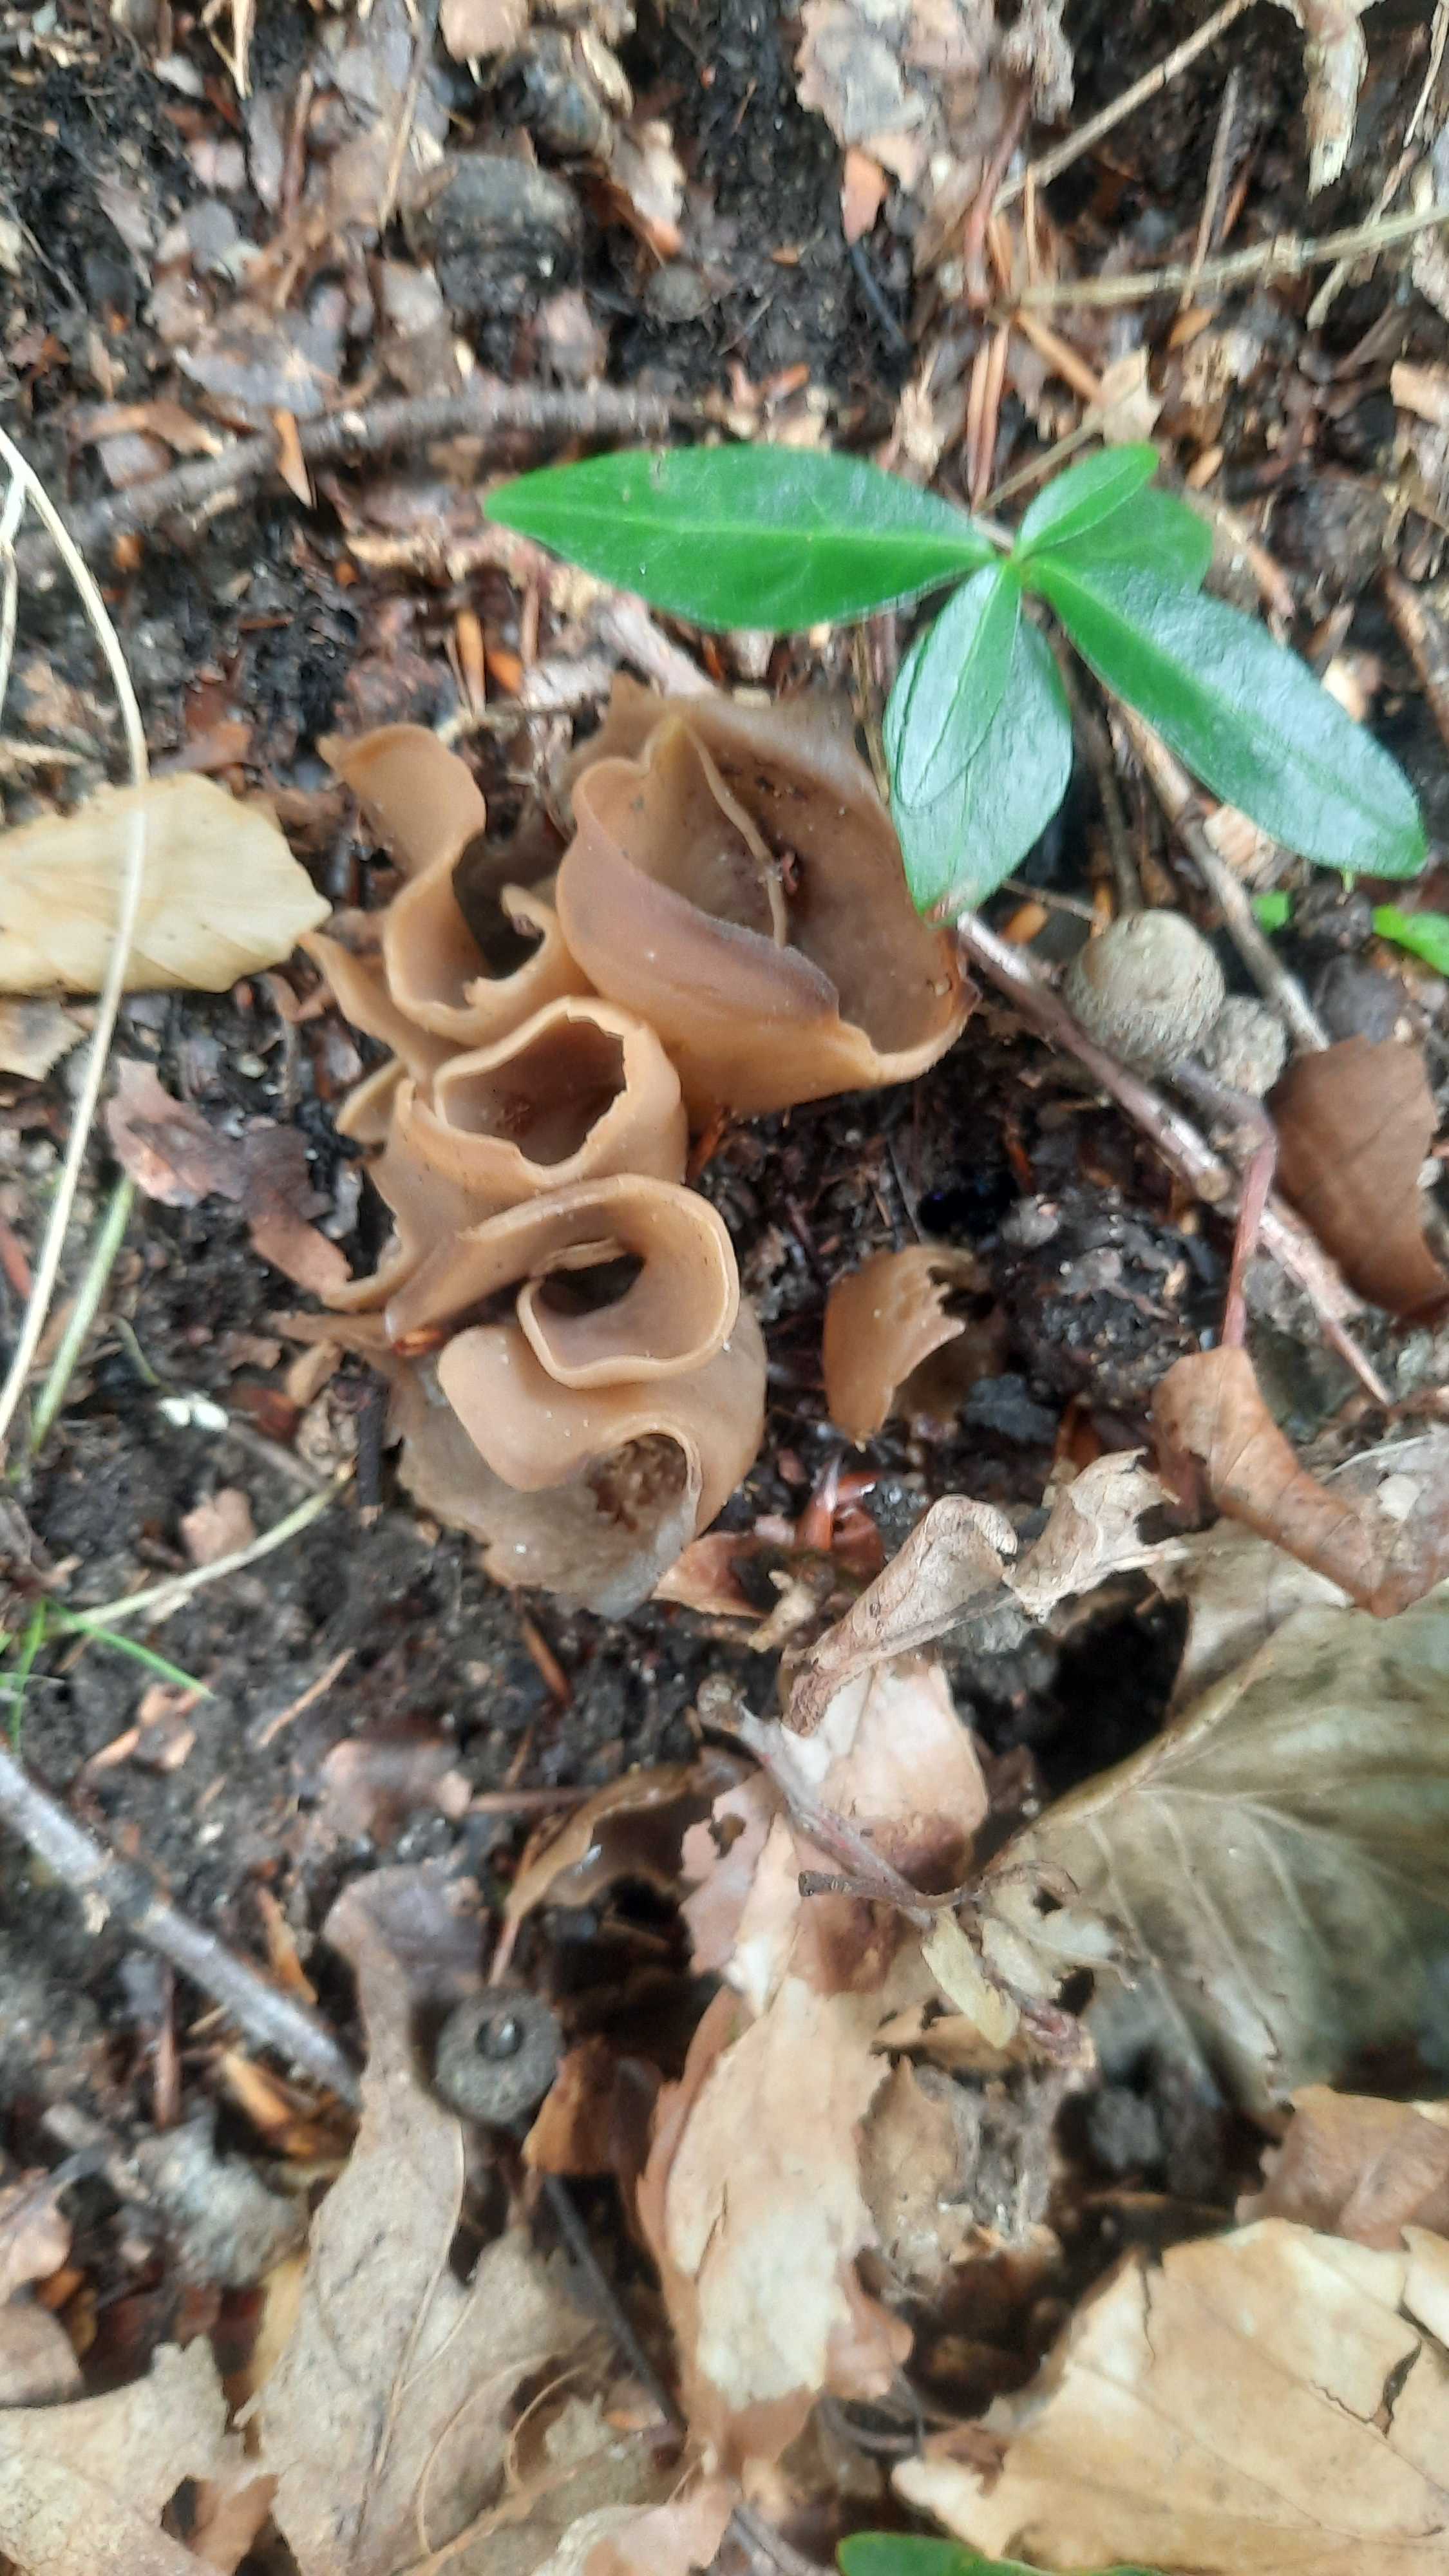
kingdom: Fungi
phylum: Ascomycota
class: Pezizomycetes
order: Pezizales
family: Otideaceae
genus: Otidea
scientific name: Otidea alutacea
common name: læder-ørebæger
